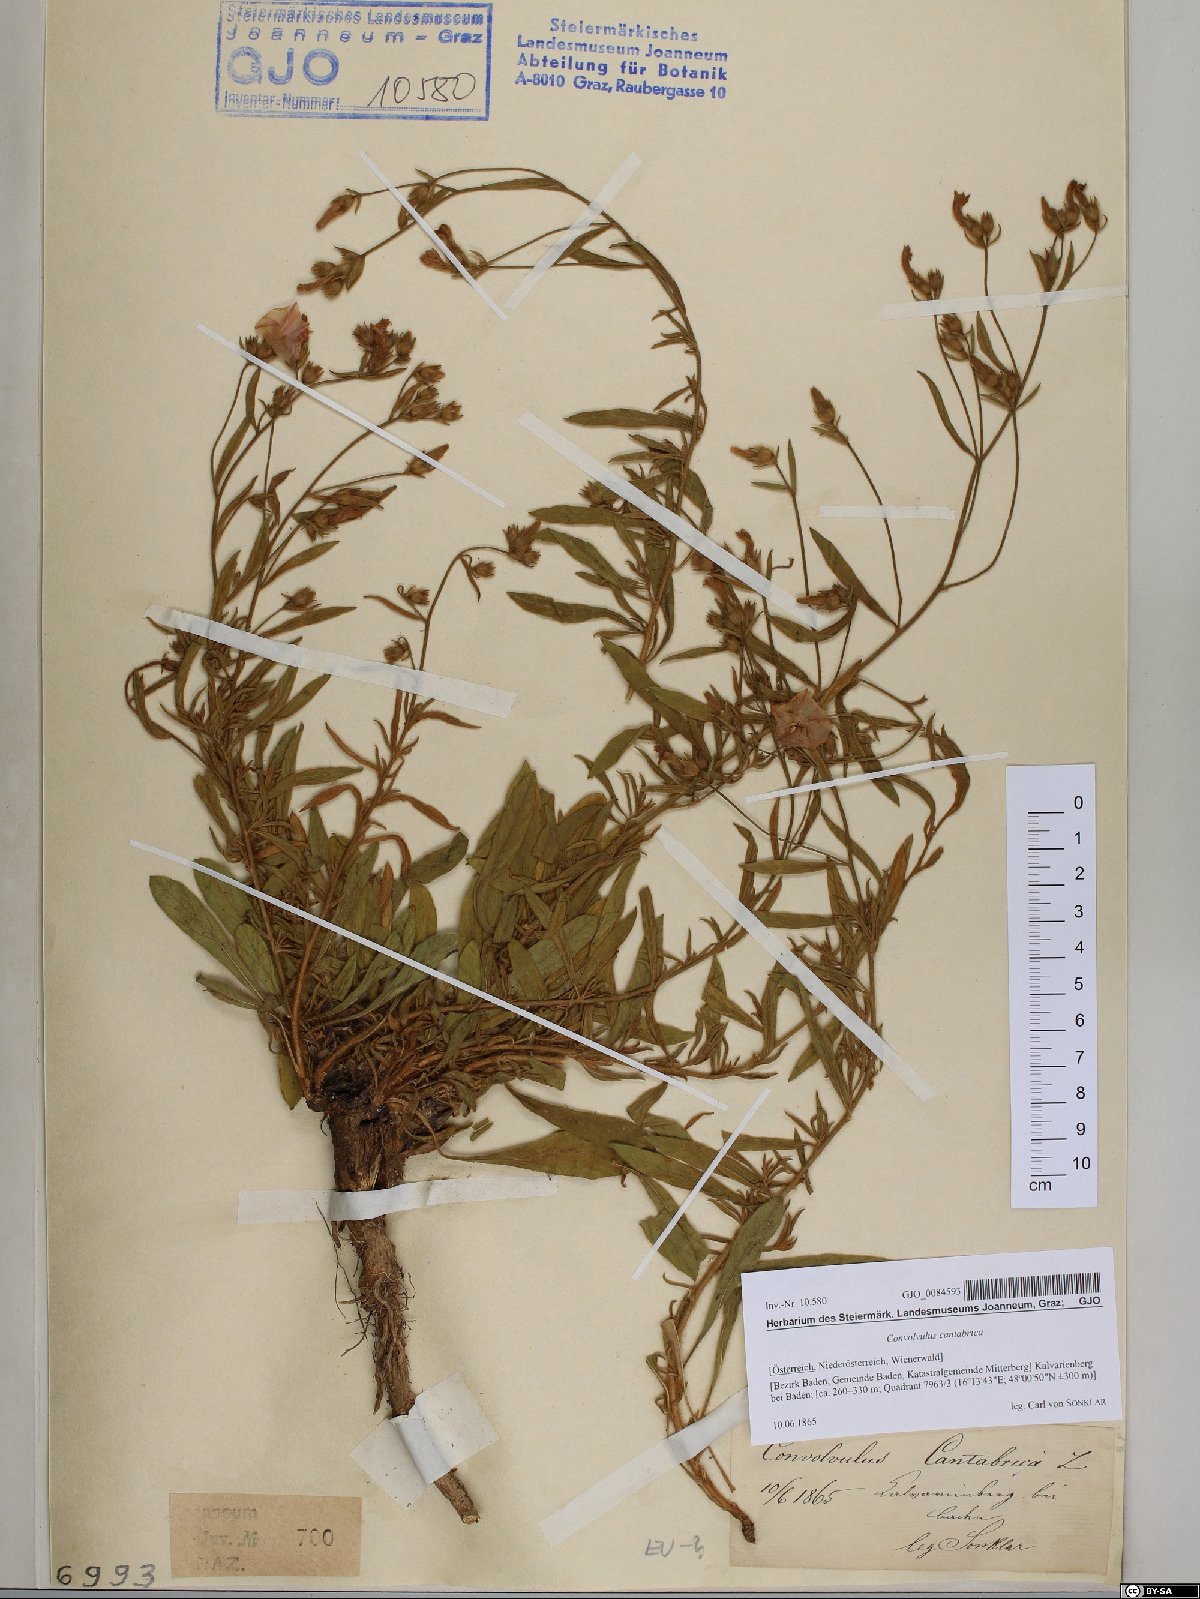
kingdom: Plantae
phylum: Tracheophyta
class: Magnoliopsida
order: Solanales
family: Convolvulaceae
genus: Convolvulus
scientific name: Convolvulus cantabrica
